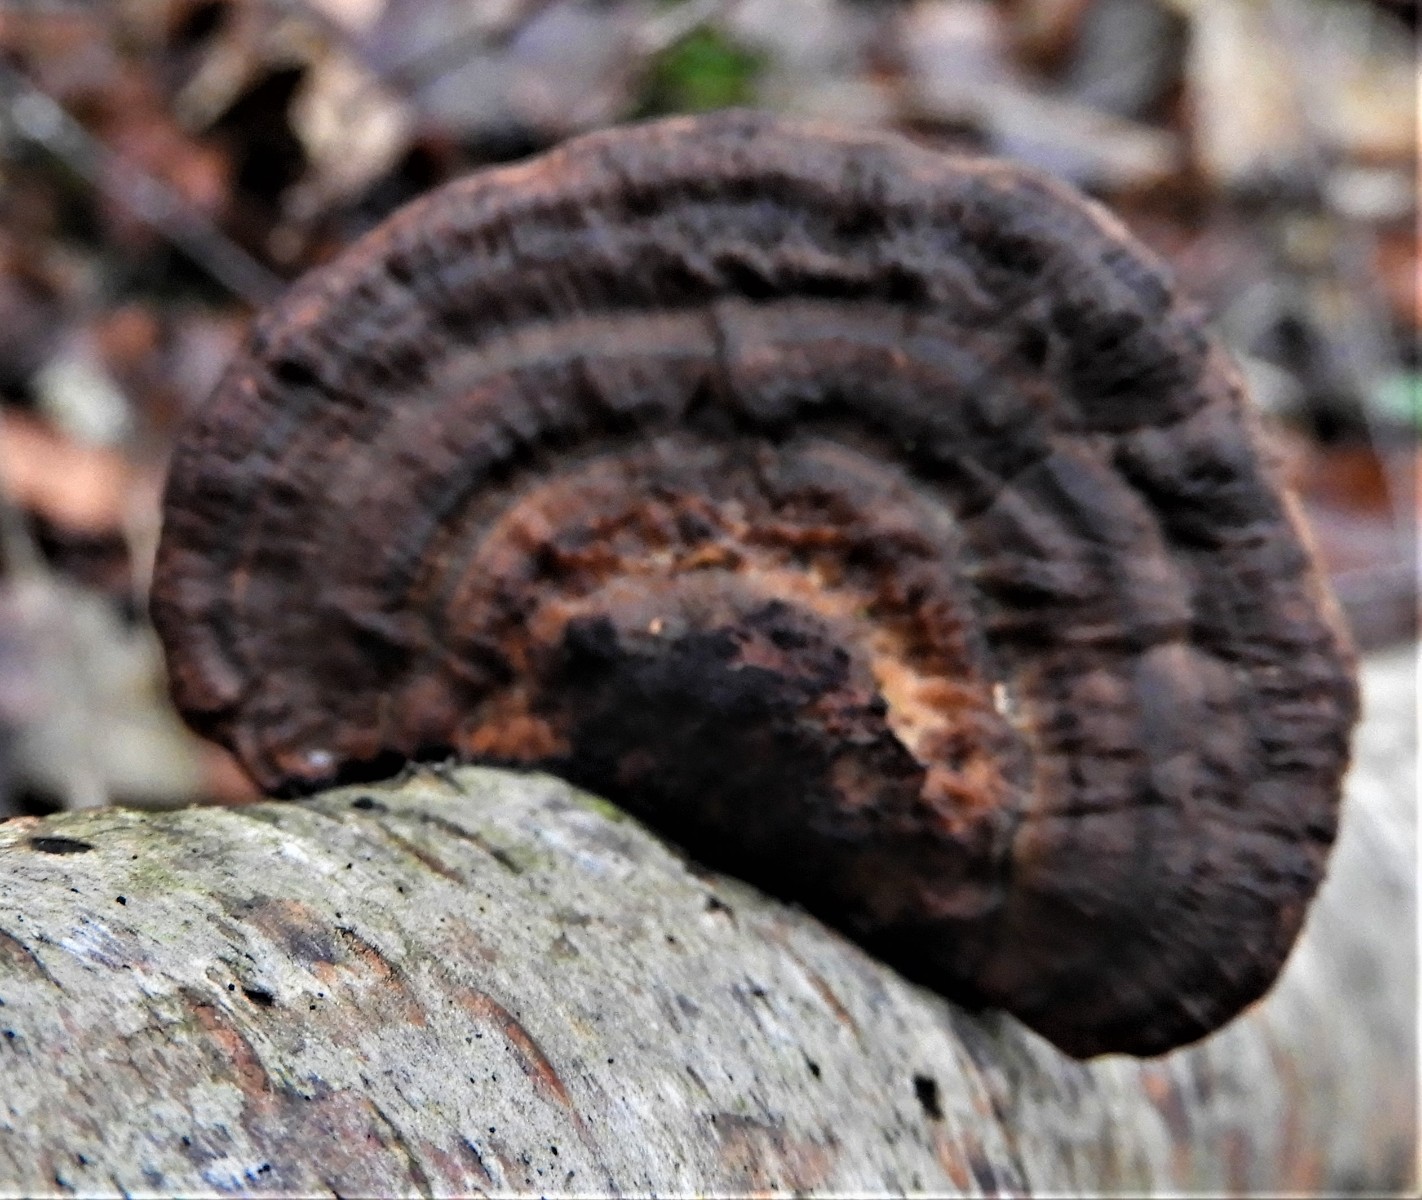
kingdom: Fungi
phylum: Basidiomycota
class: Agaricomycetes
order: Polyporales
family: Polyporaceae
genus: Daedaleopsis
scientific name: Daedaleopsis confragosa
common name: rødmende læderporesvamp
